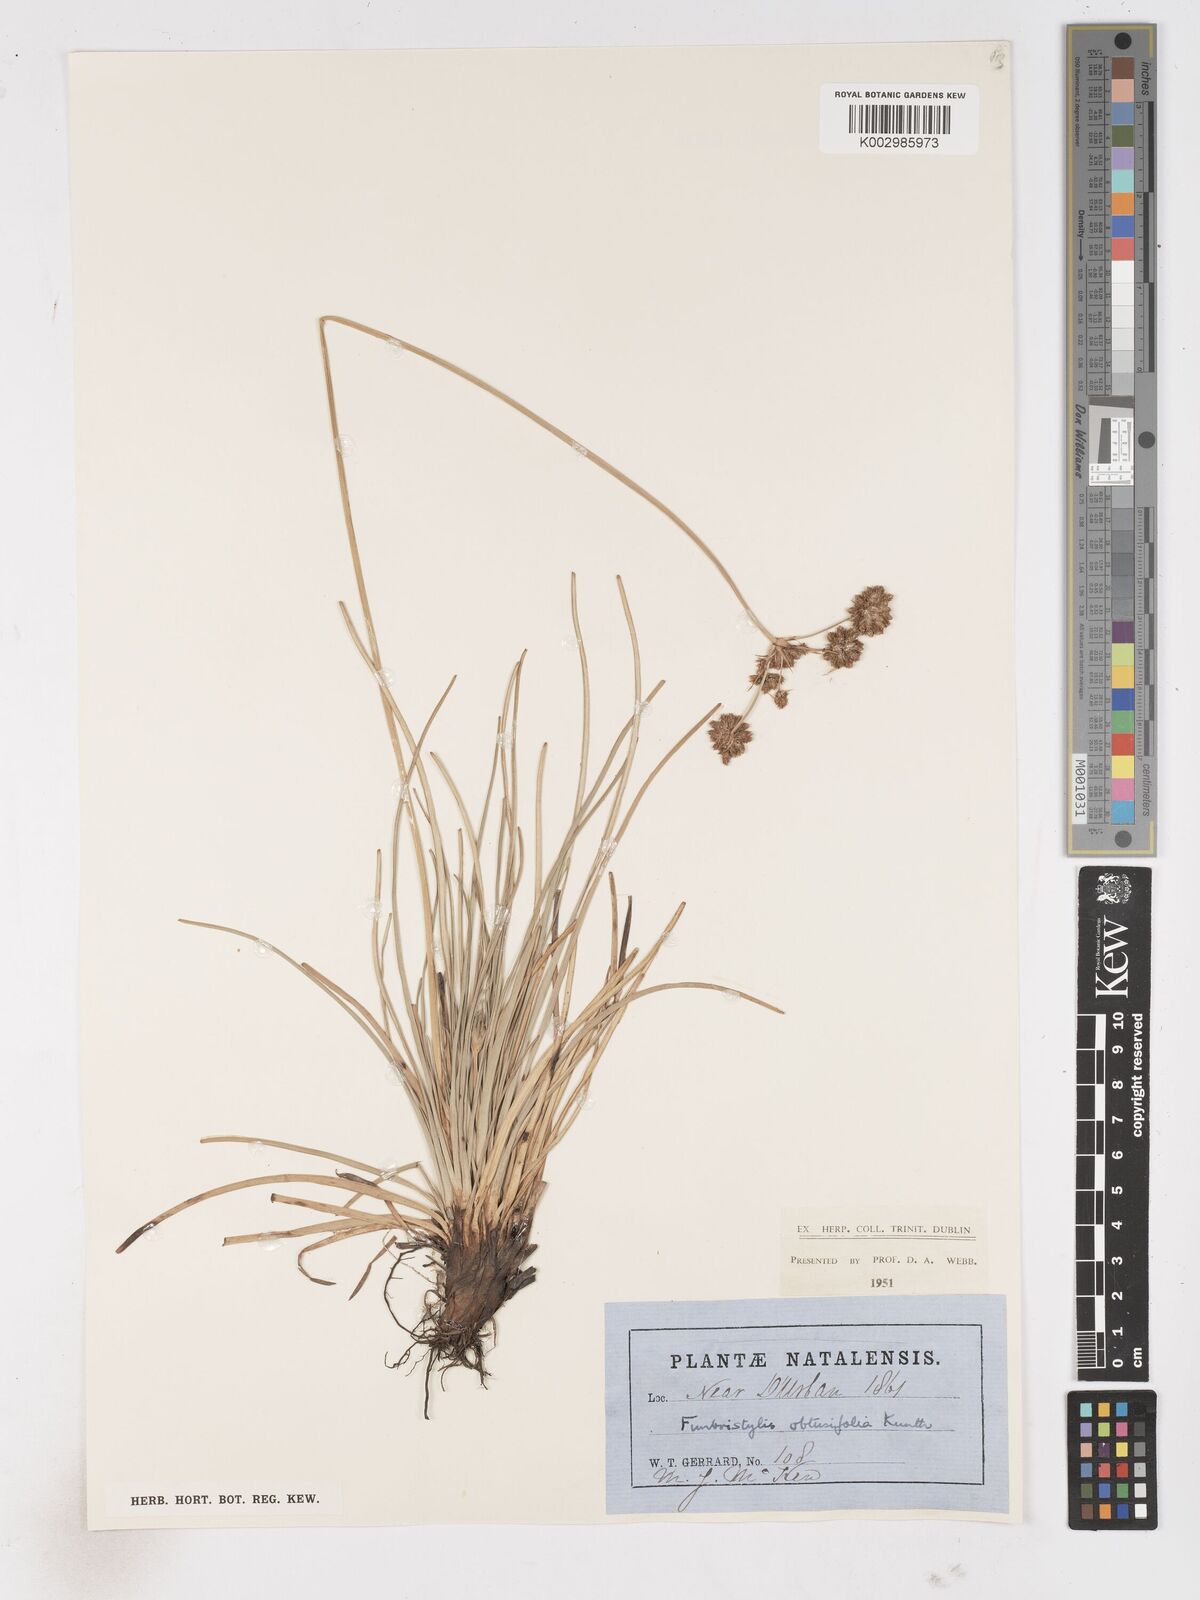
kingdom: Plantae
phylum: Tracheophyta
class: Liliopsida
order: Poales
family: Cyperaceae
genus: Fimbristylis
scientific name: Fimbristylis cymosa
